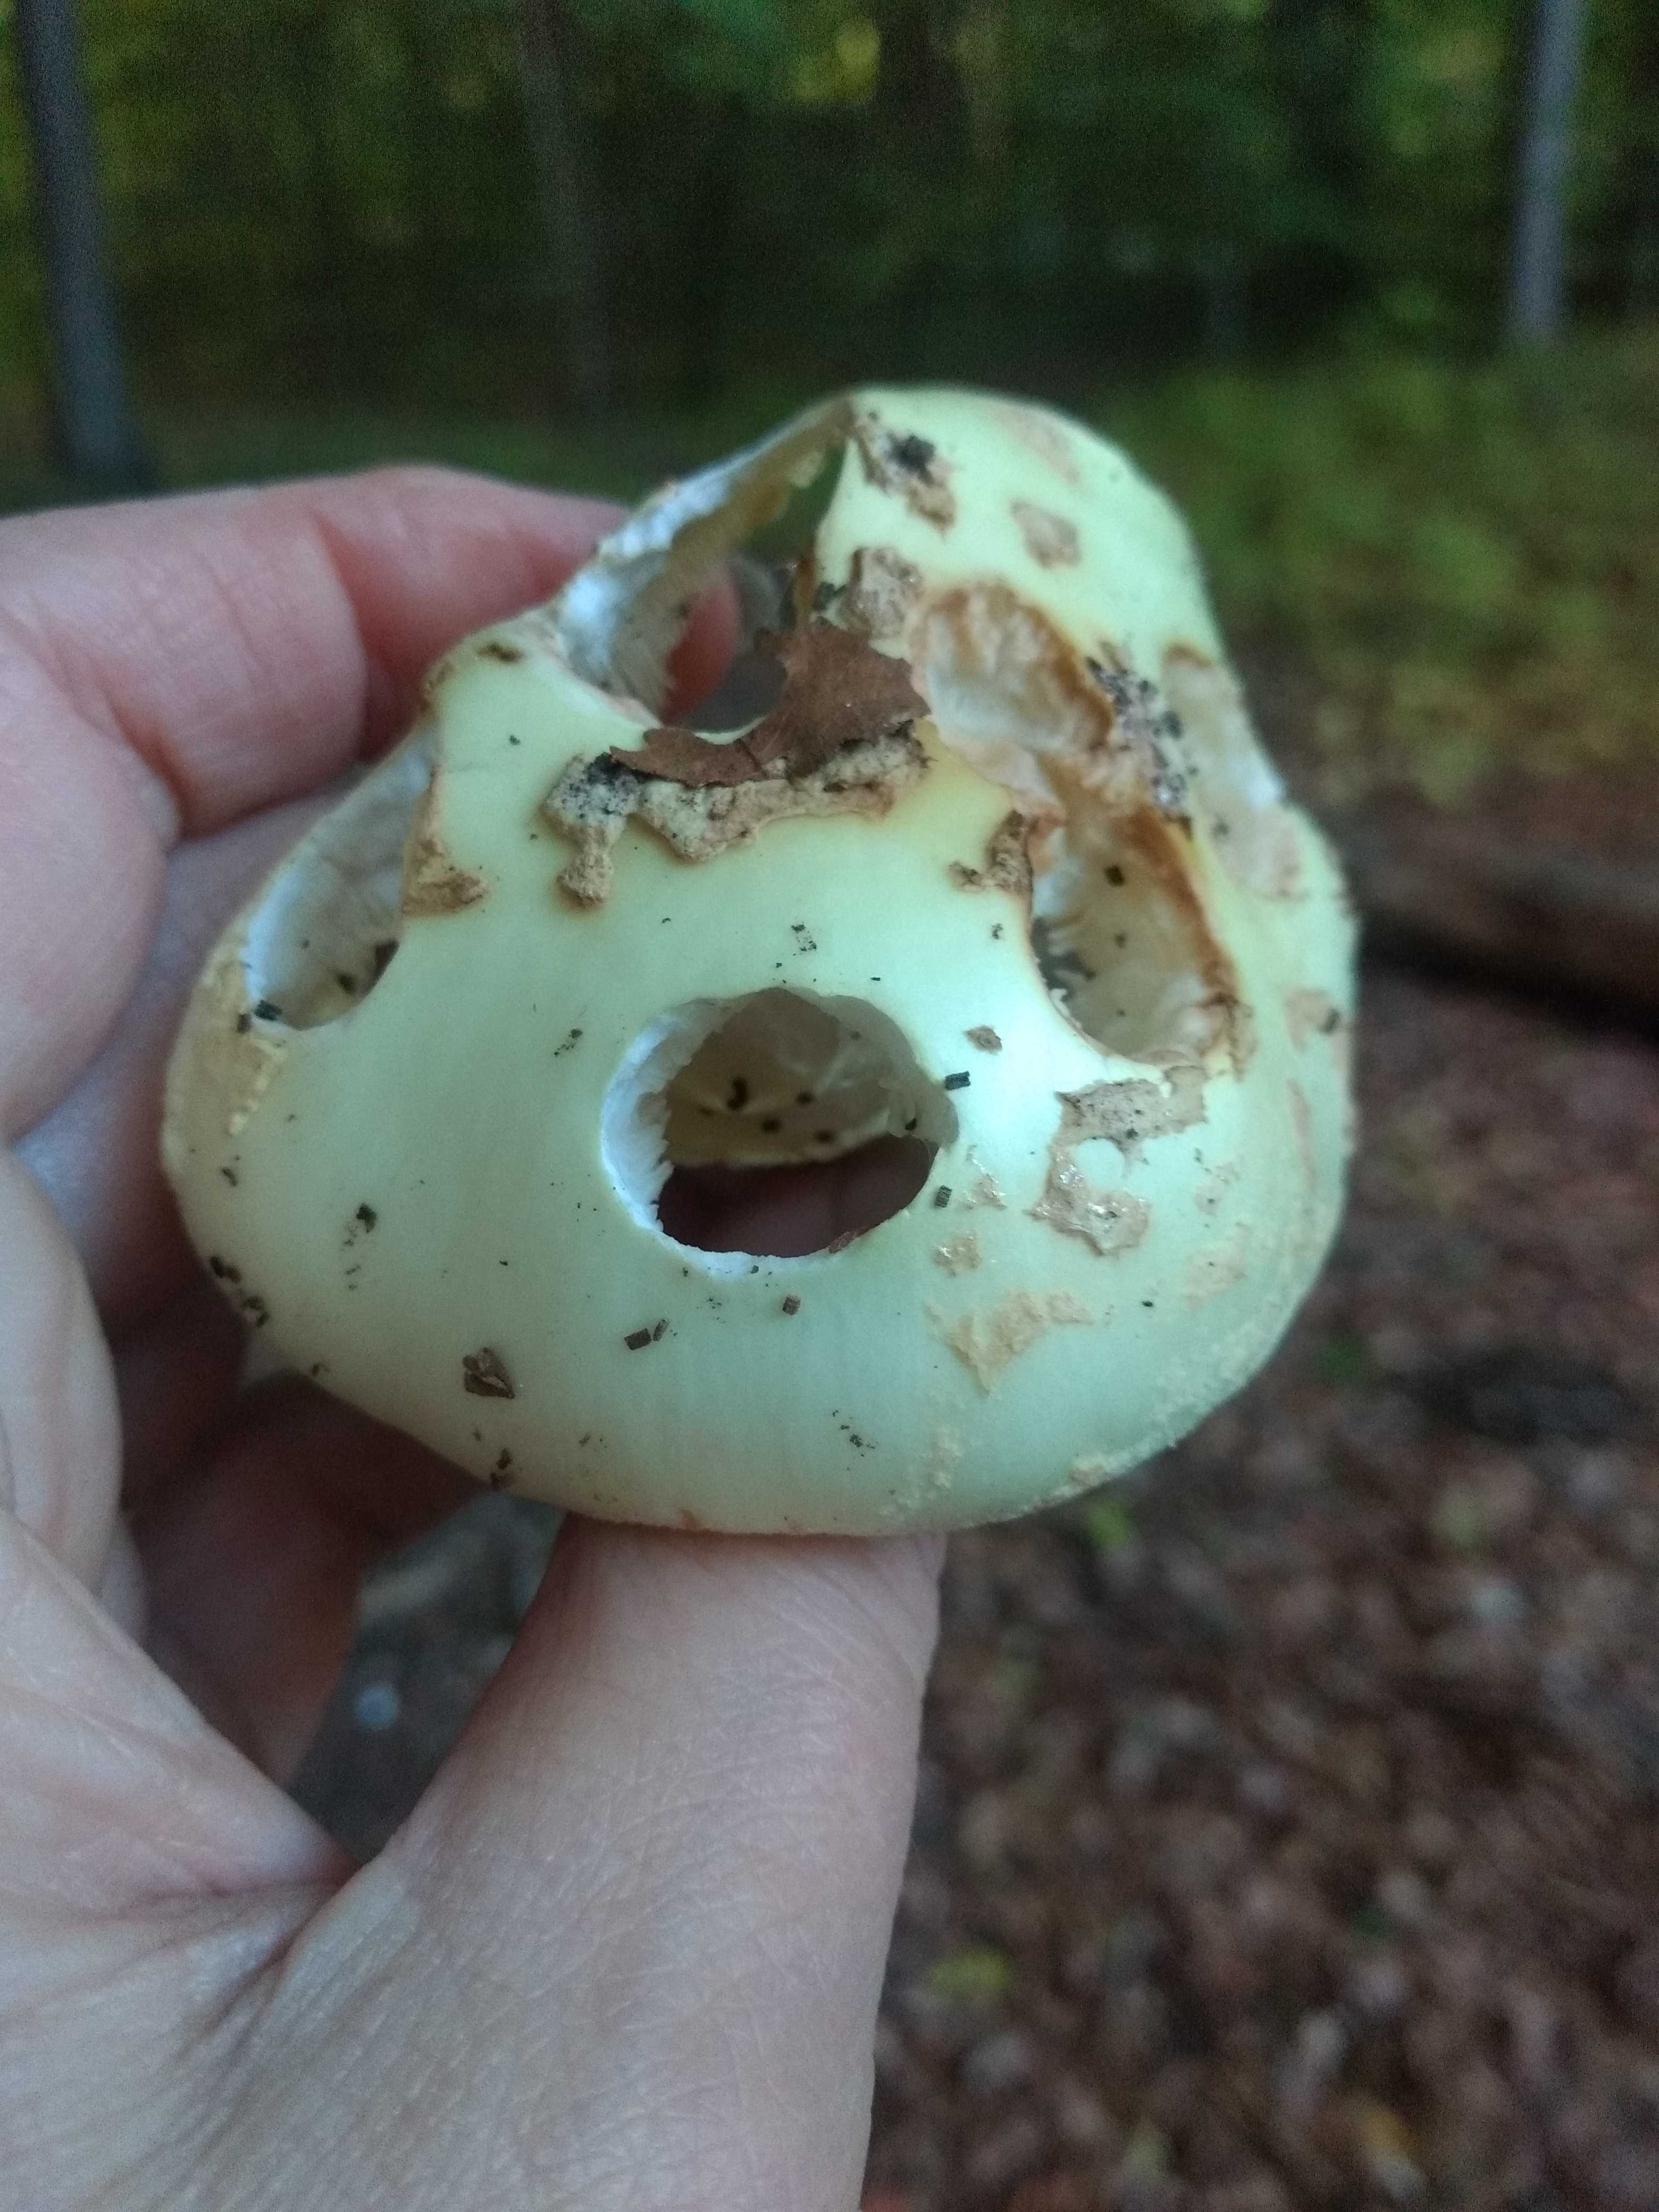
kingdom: Fungi
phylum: Basidiomycota
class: Agaricomycetes
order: Agaricales
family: Amanitaceae
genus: Amanita
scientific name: Amanita citrina
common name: kugleknoldet fluesvamp
